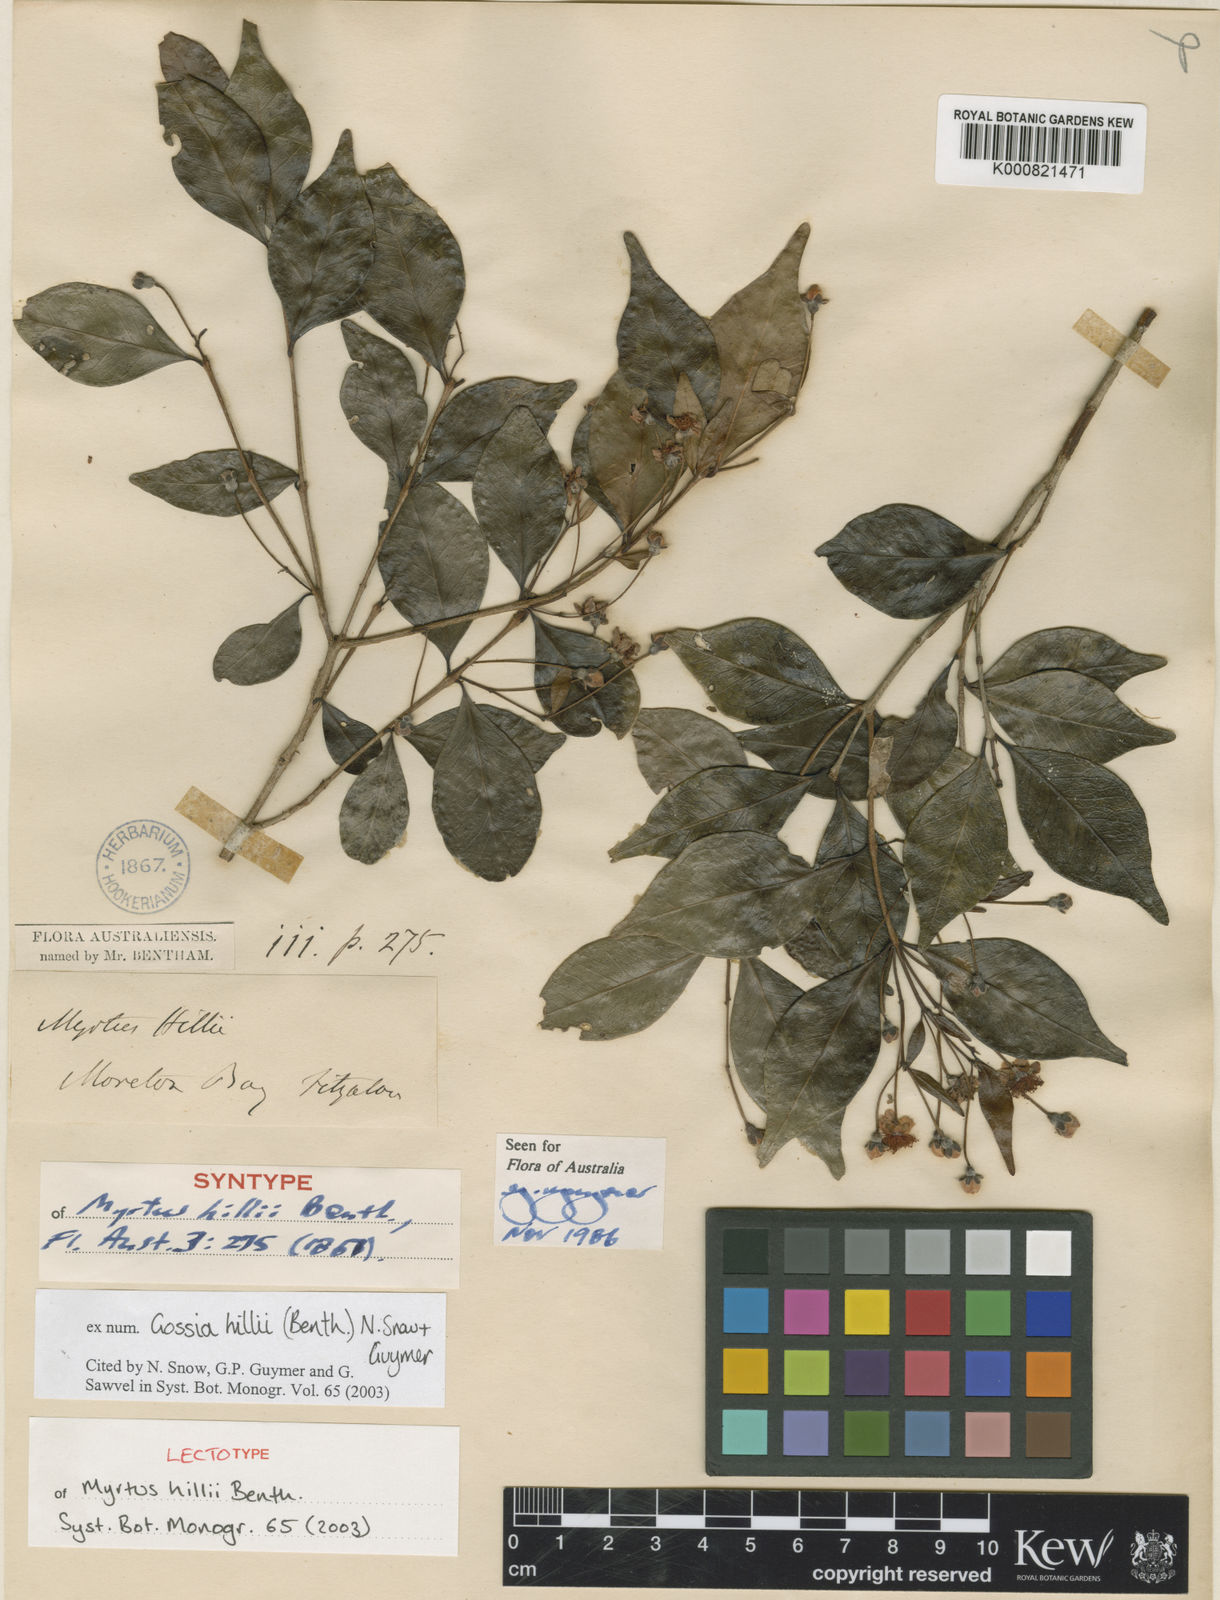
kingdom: Plantae
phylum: Tracheophyta
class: Magnoliopsida
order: Myrtales
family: Myrtaceae
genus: Gossia
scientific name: Gossia hillii
